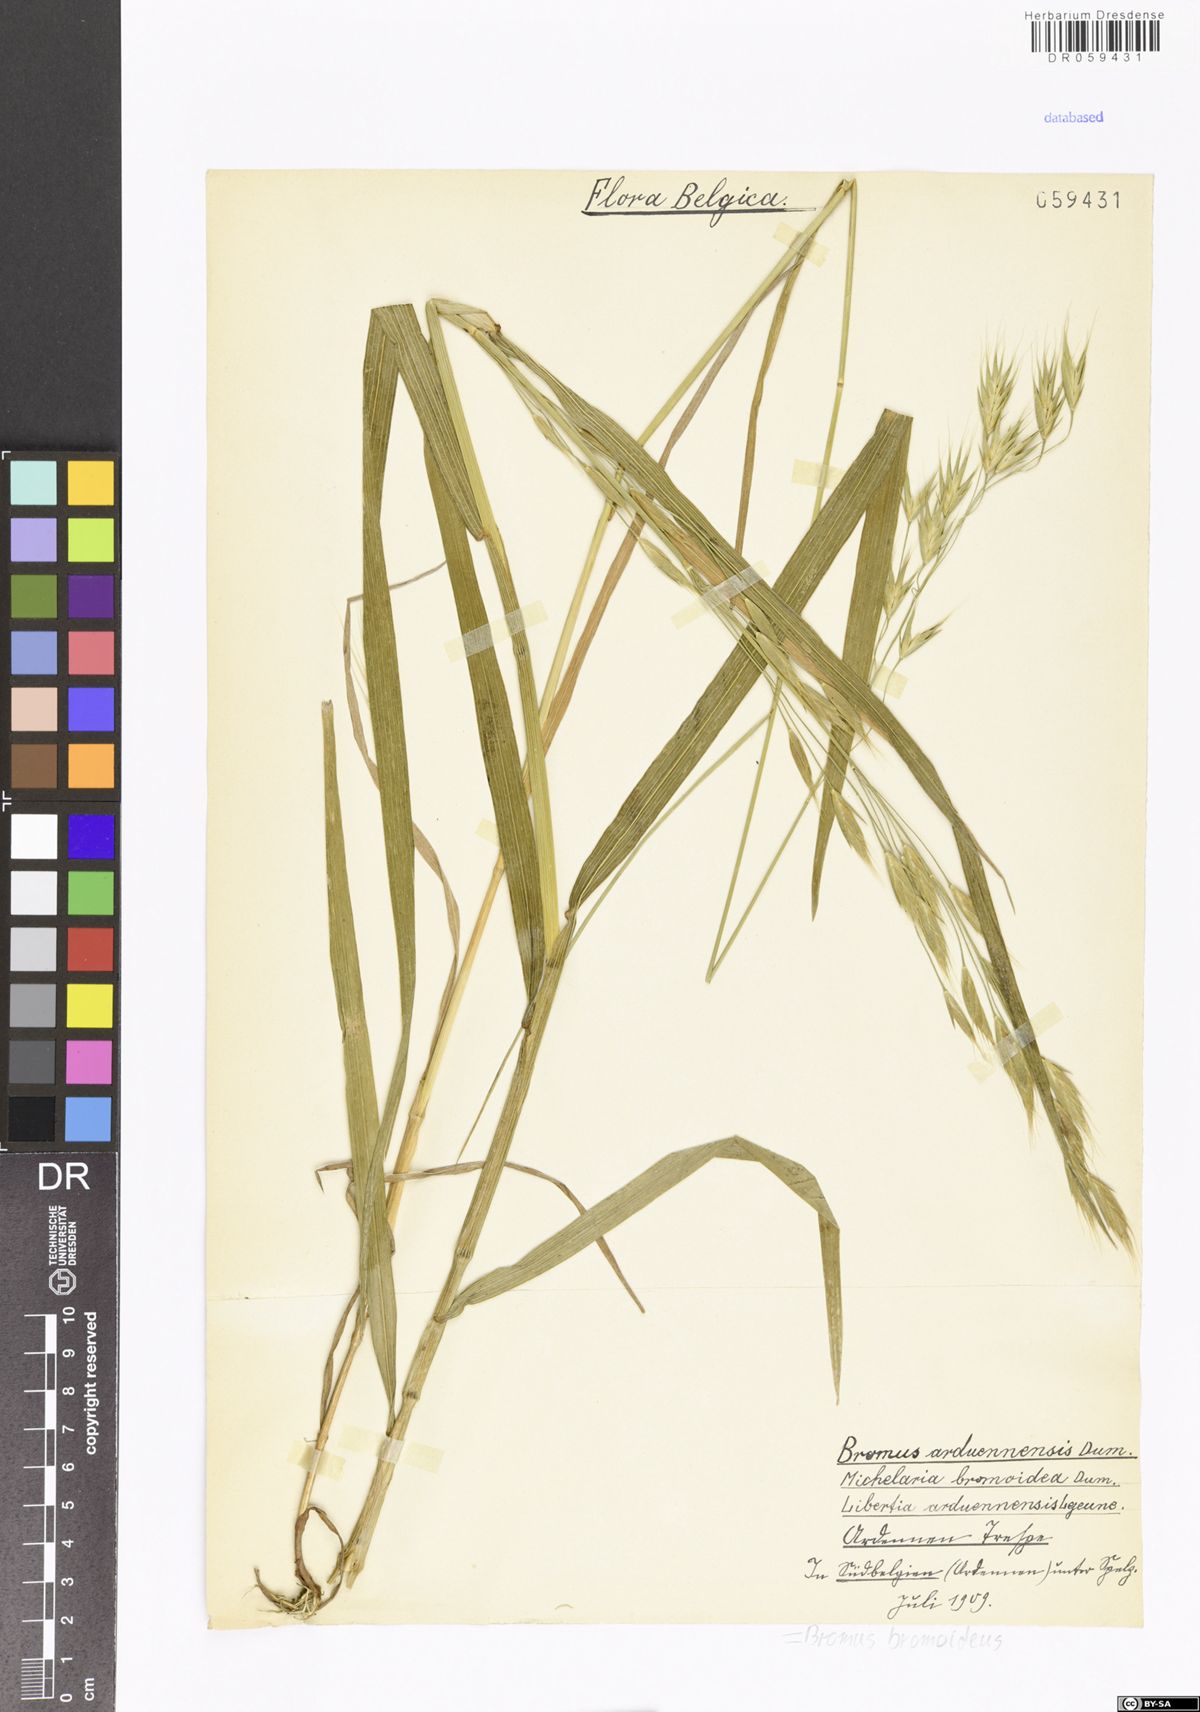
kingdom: Plantae
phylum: Tracheophyta
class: Liliopsida
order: Poales
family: Poaceae
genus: Bromus
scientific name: Bromus bromoideus
